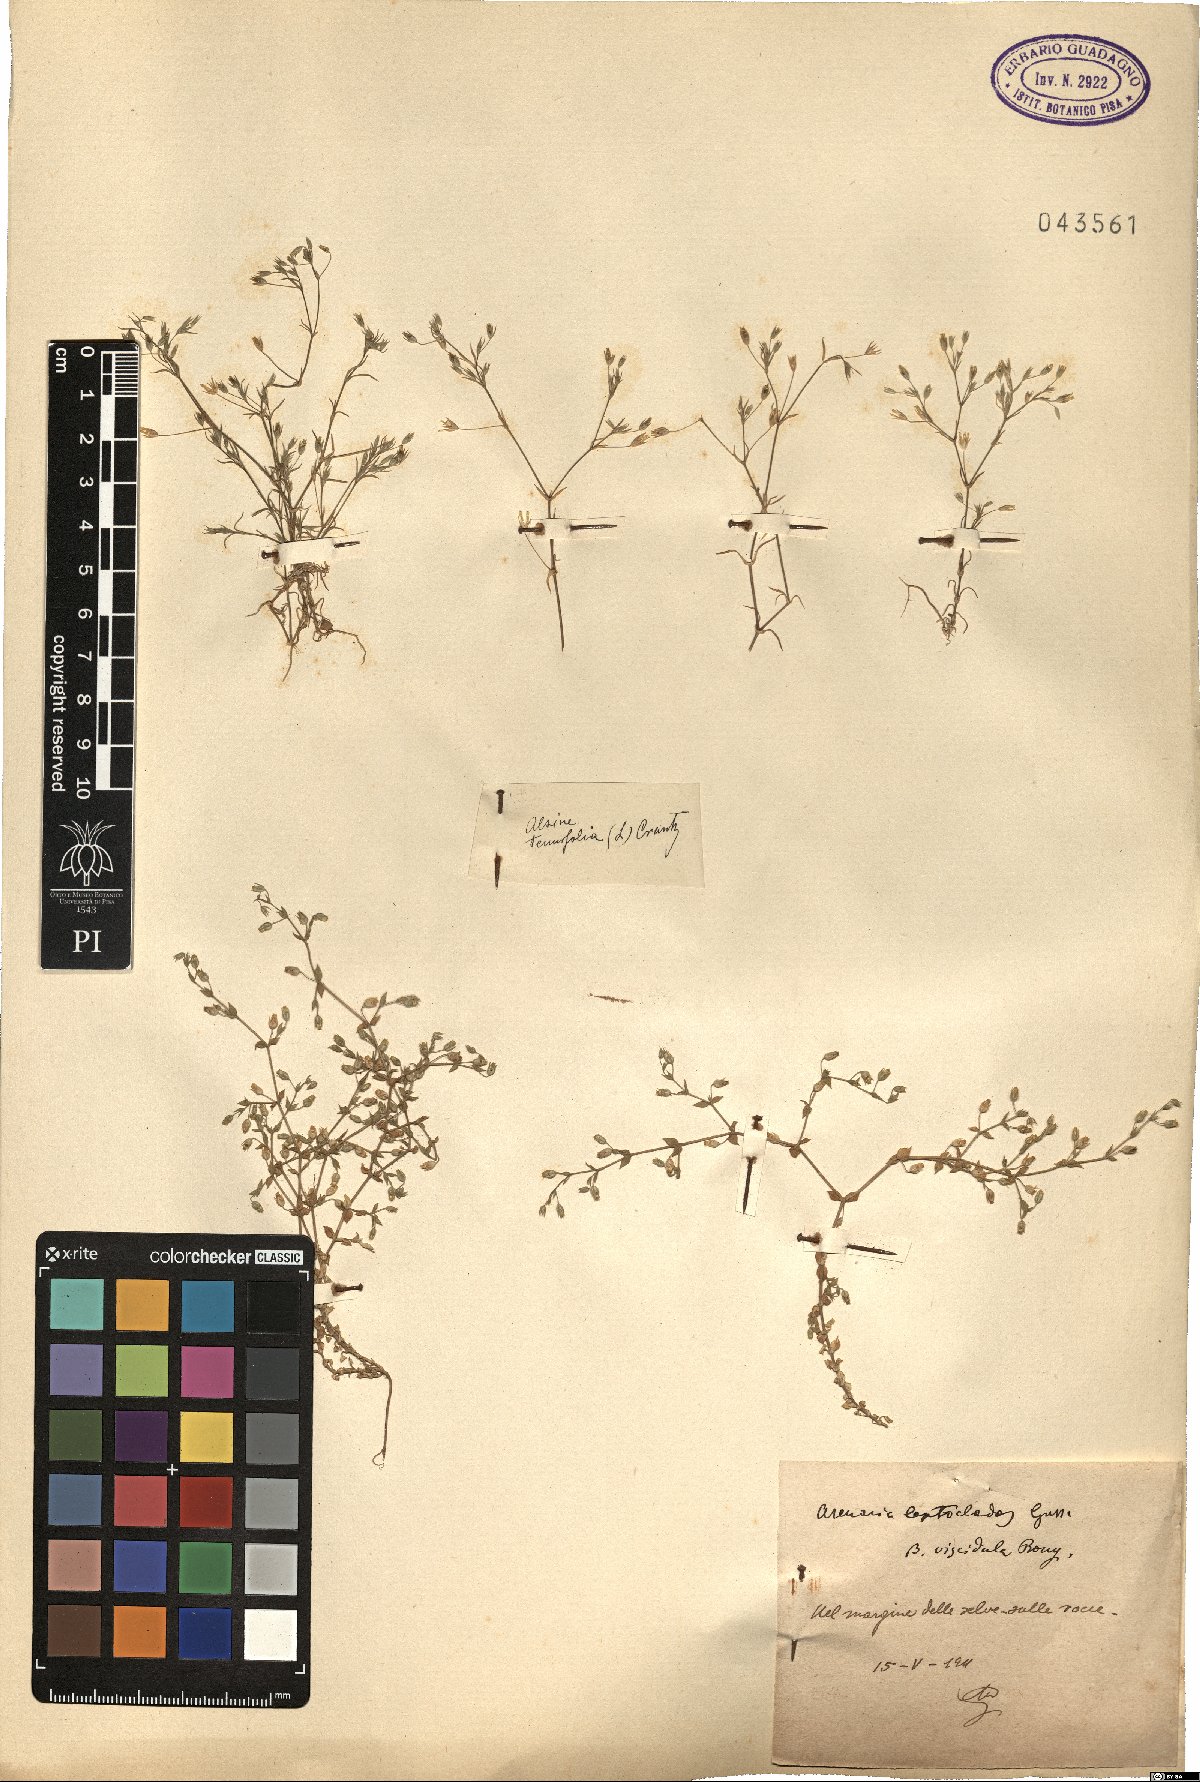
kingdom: Plantae
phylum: Tracheophyta
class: Magnoliopsida
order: Caryophyllales
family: Caryophyllaceae
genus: Arenaria
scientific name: Arenaria leptoclados
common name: Thyme-leaved sandwort
